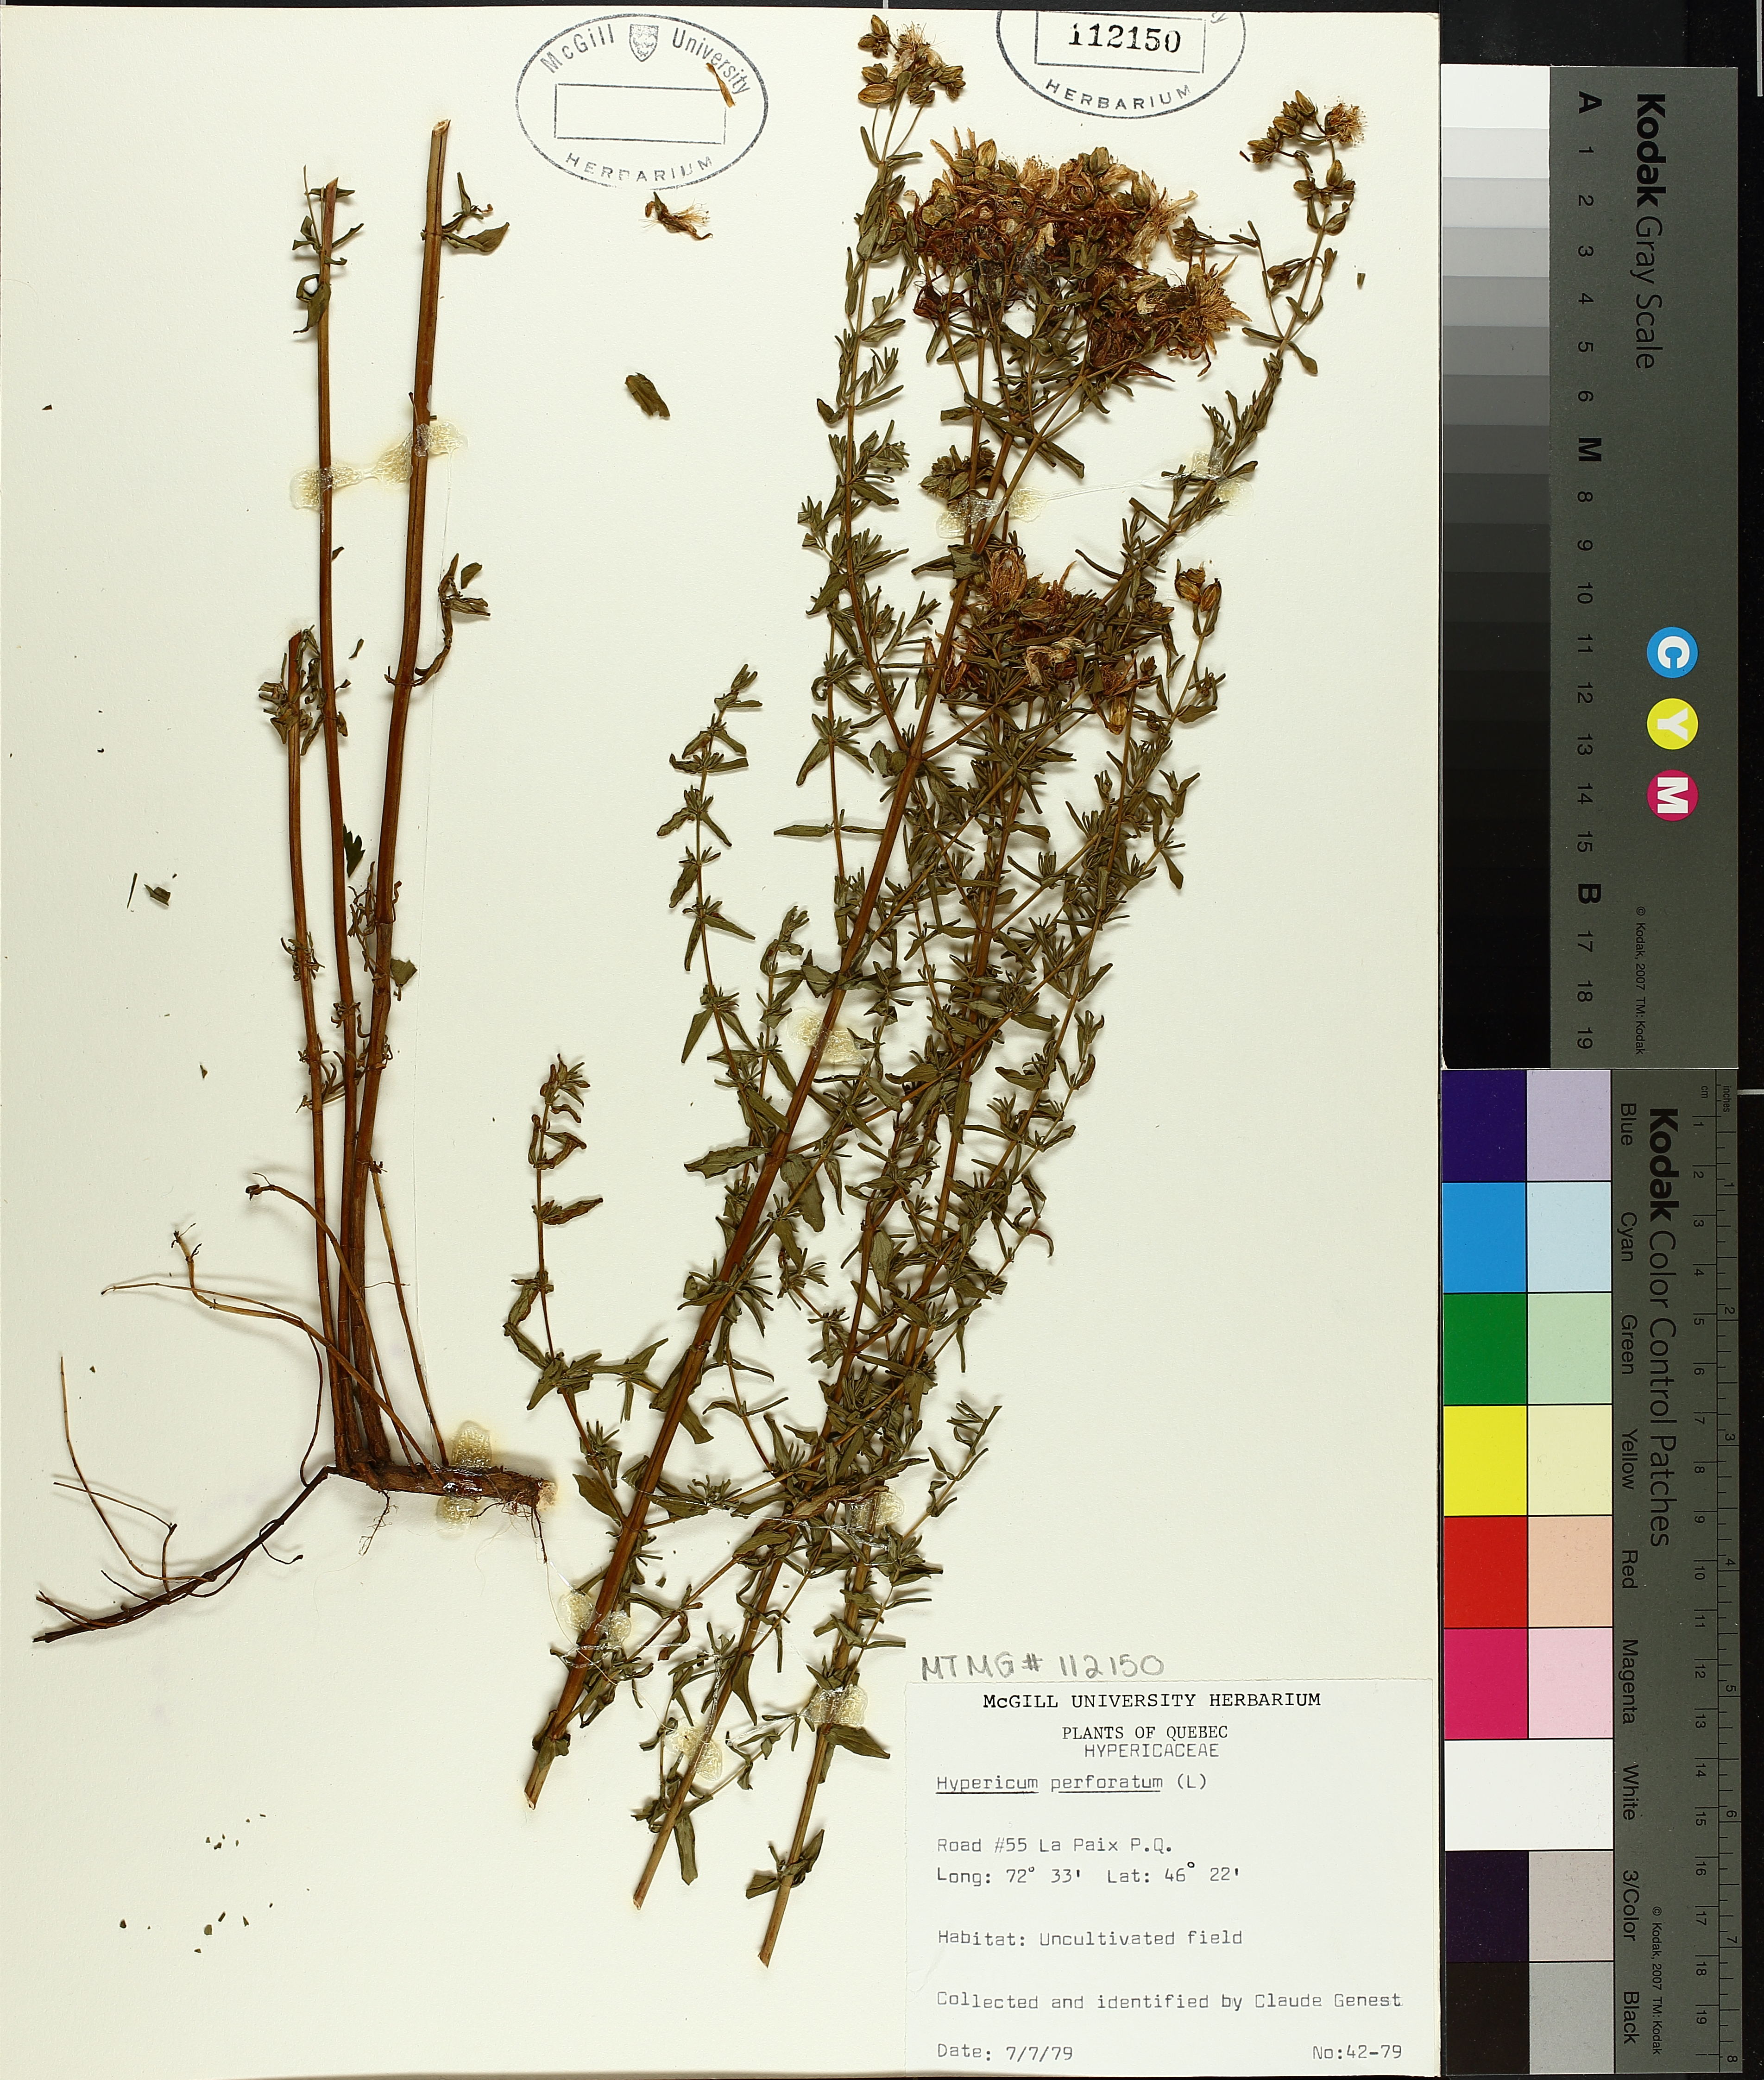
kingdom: Plantae
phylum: Tracheophyta
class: Magnoliopsida
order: Malpighiales
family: Hypericaceae
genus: Hypericum
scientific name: Hypericum perforatum
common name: Common st. johnswort
